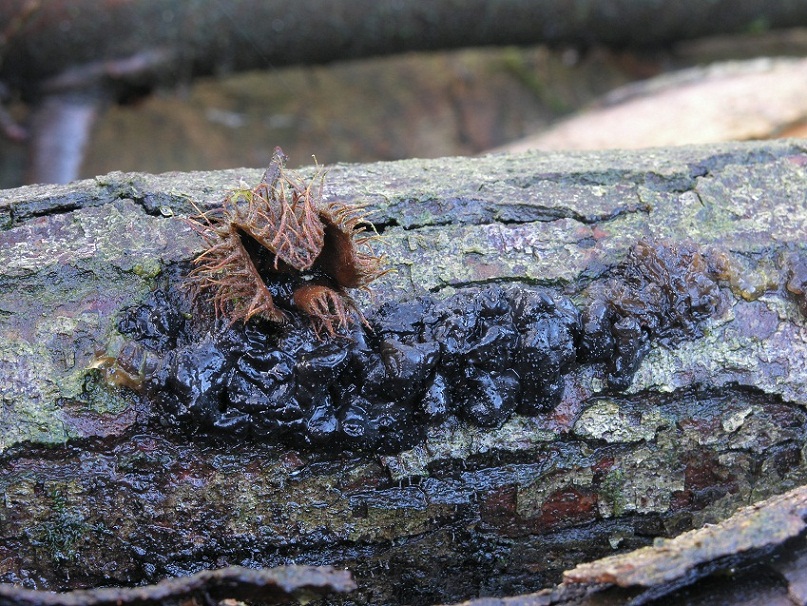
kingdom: Fungi
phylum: Basidiomycota
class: Agaricomycetes
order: Auriculariales
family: Auriculariaceae
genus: Exidia
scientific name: Exidia nigricans
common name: almindelig bævretop
